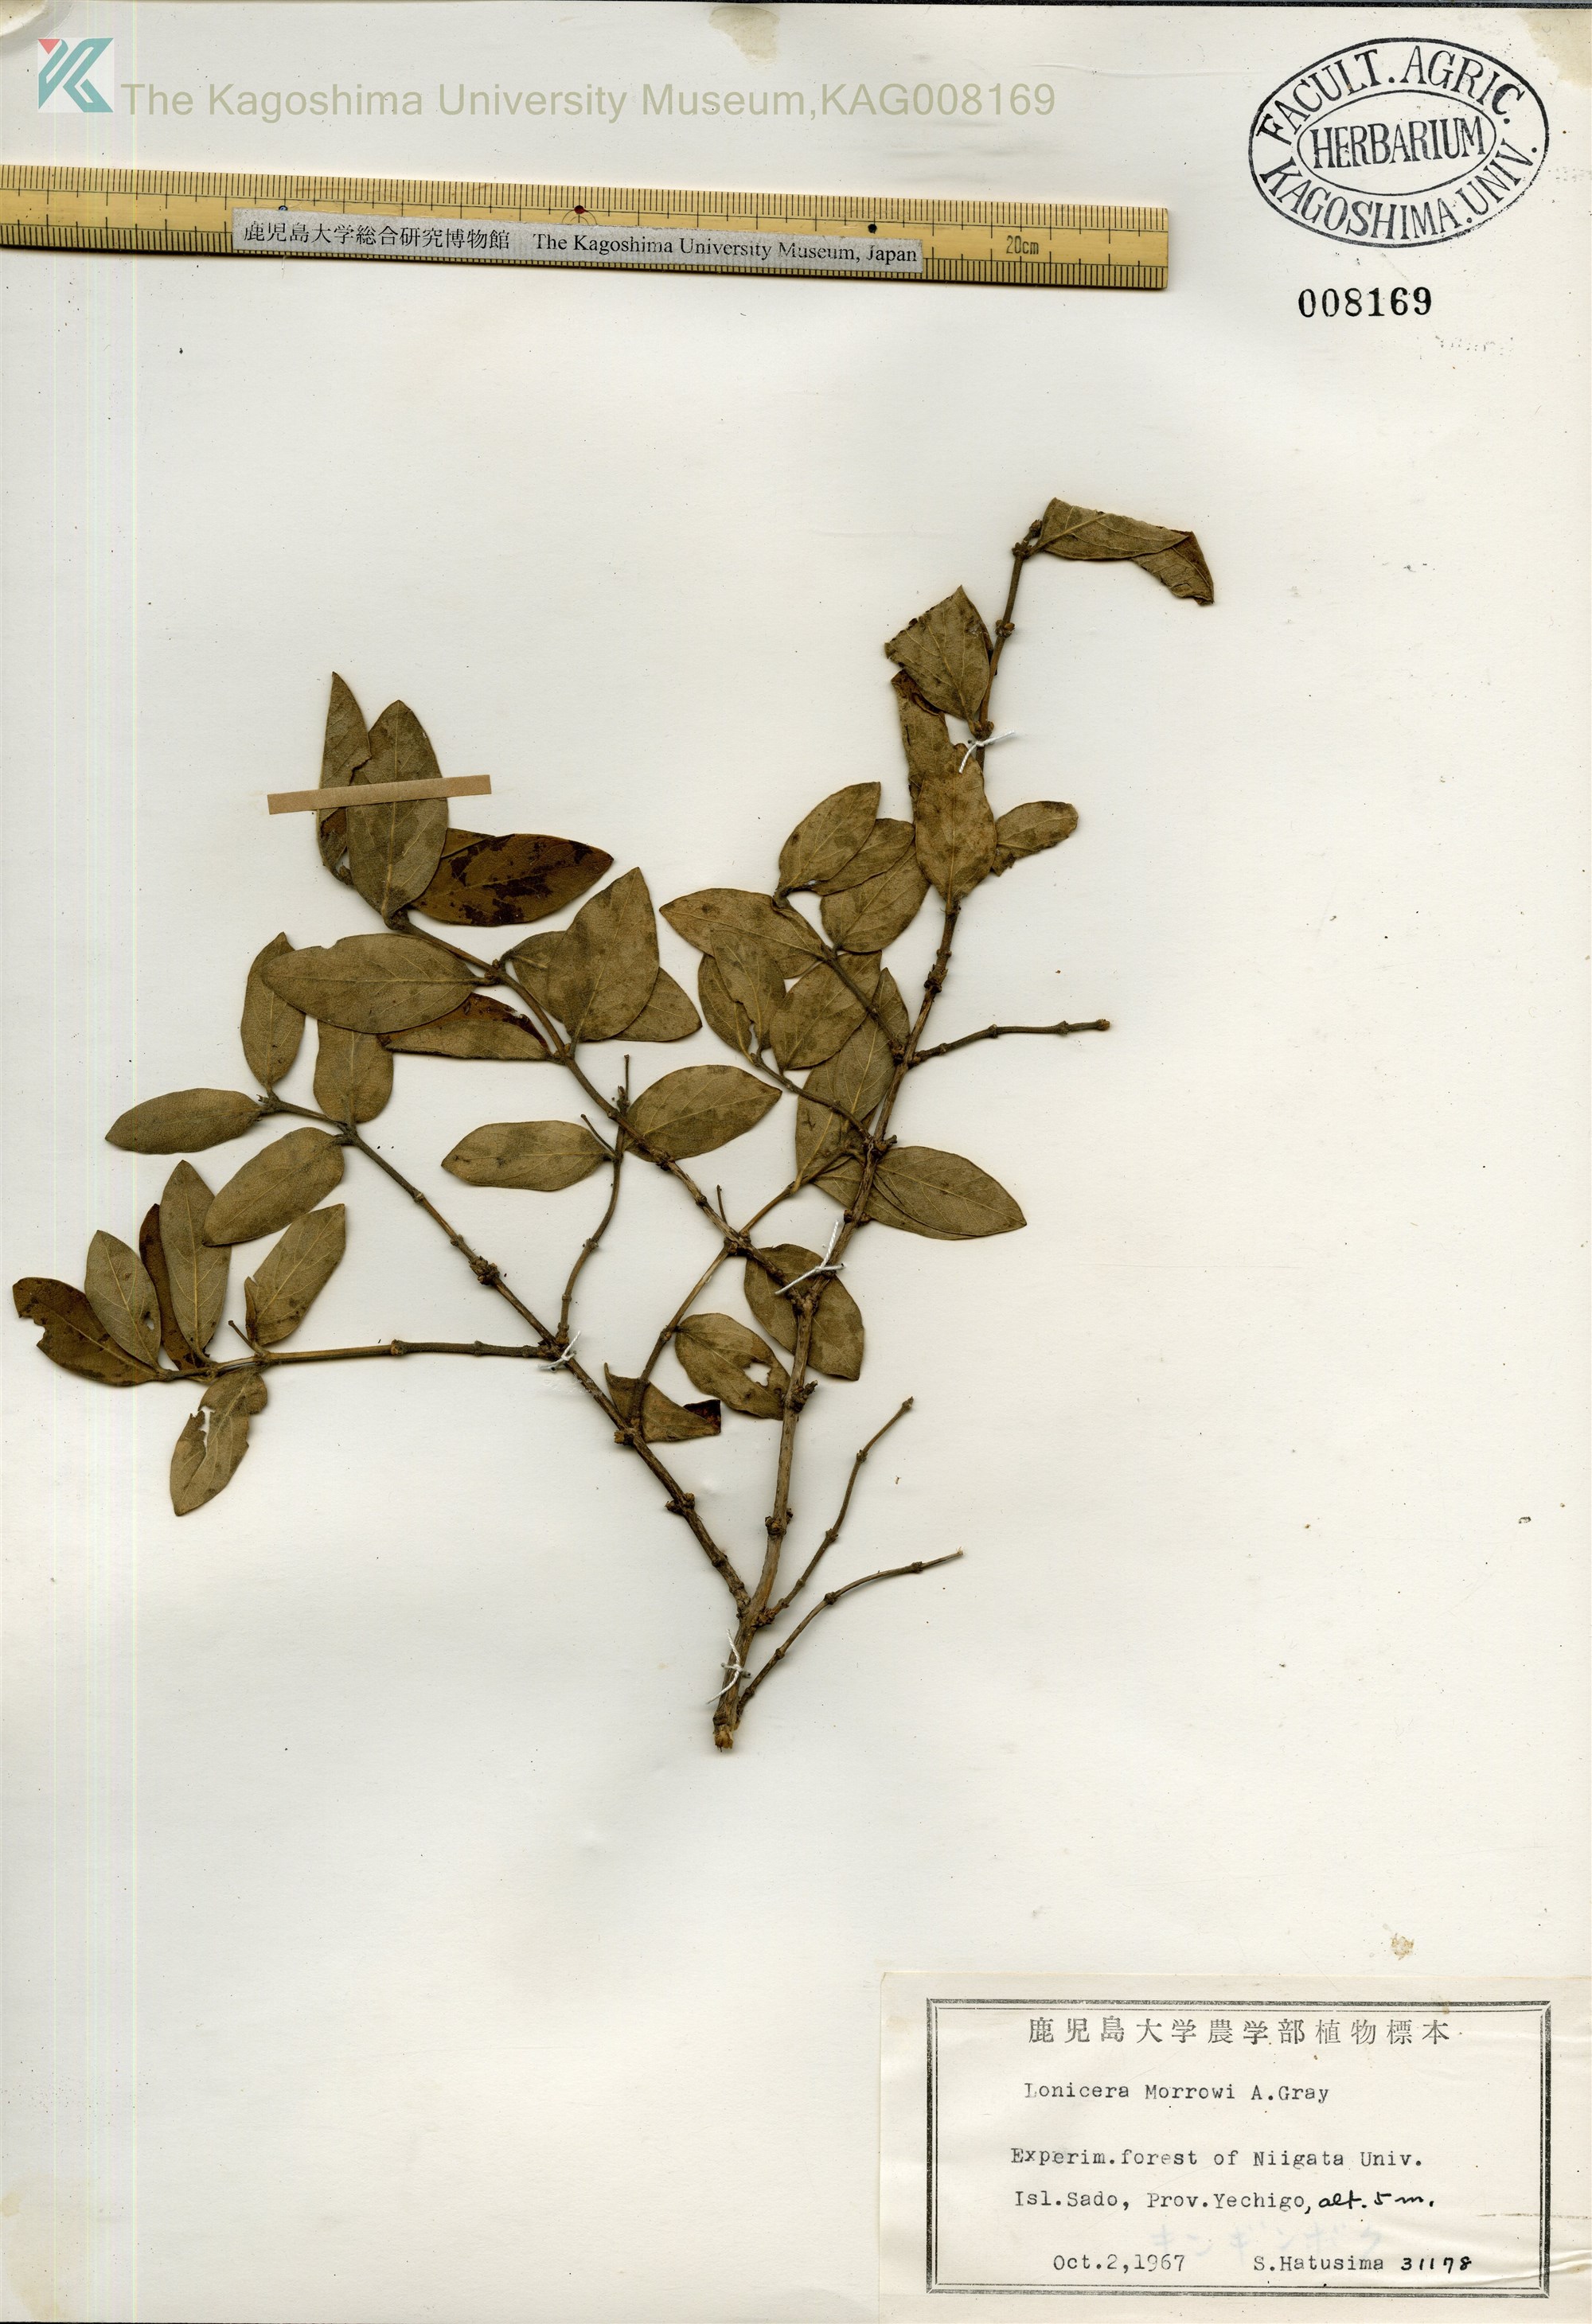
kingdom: Plantae
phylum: Tracheophyta
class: Magnoliopsida
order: Dipsacales
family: Caprifoliaceae
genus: Lonicera
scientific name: Lonicera morrowii
